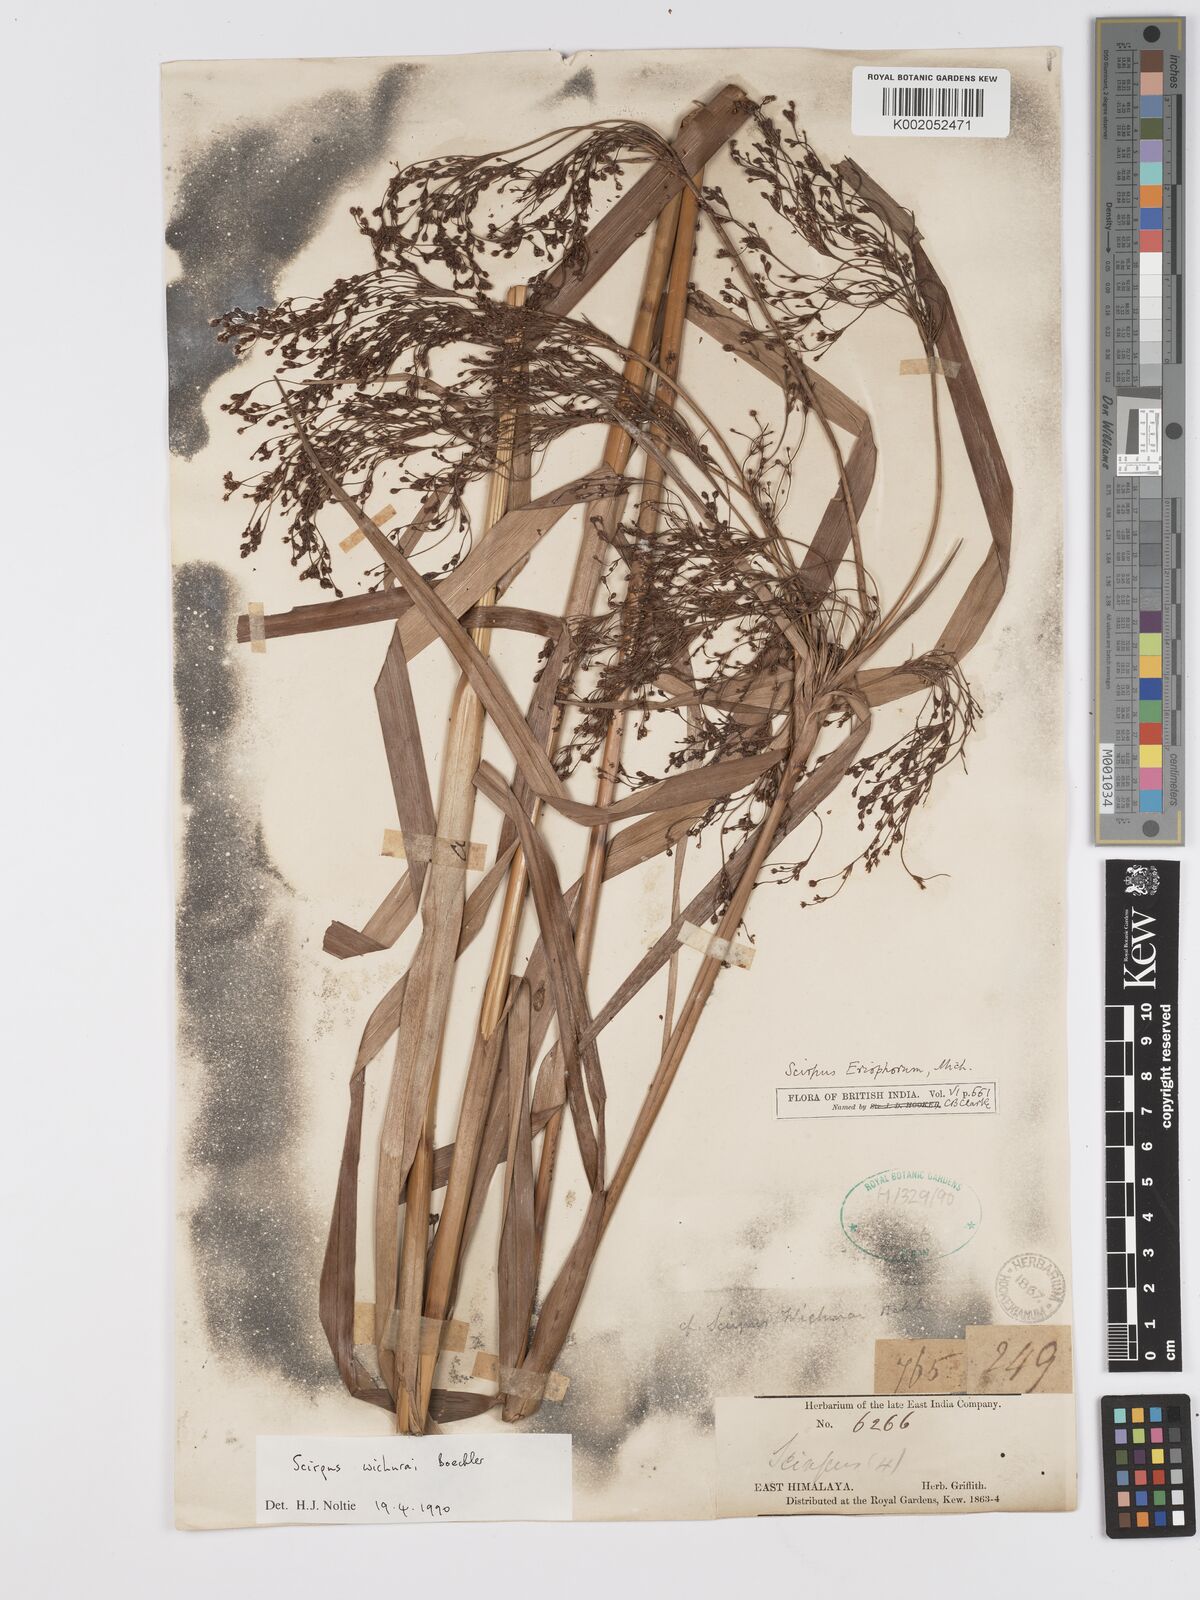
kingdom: Plantae
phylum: Tracheophyta
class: Liliopsida
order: Poales
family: Cyperaceae
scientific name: Cyperaceae
